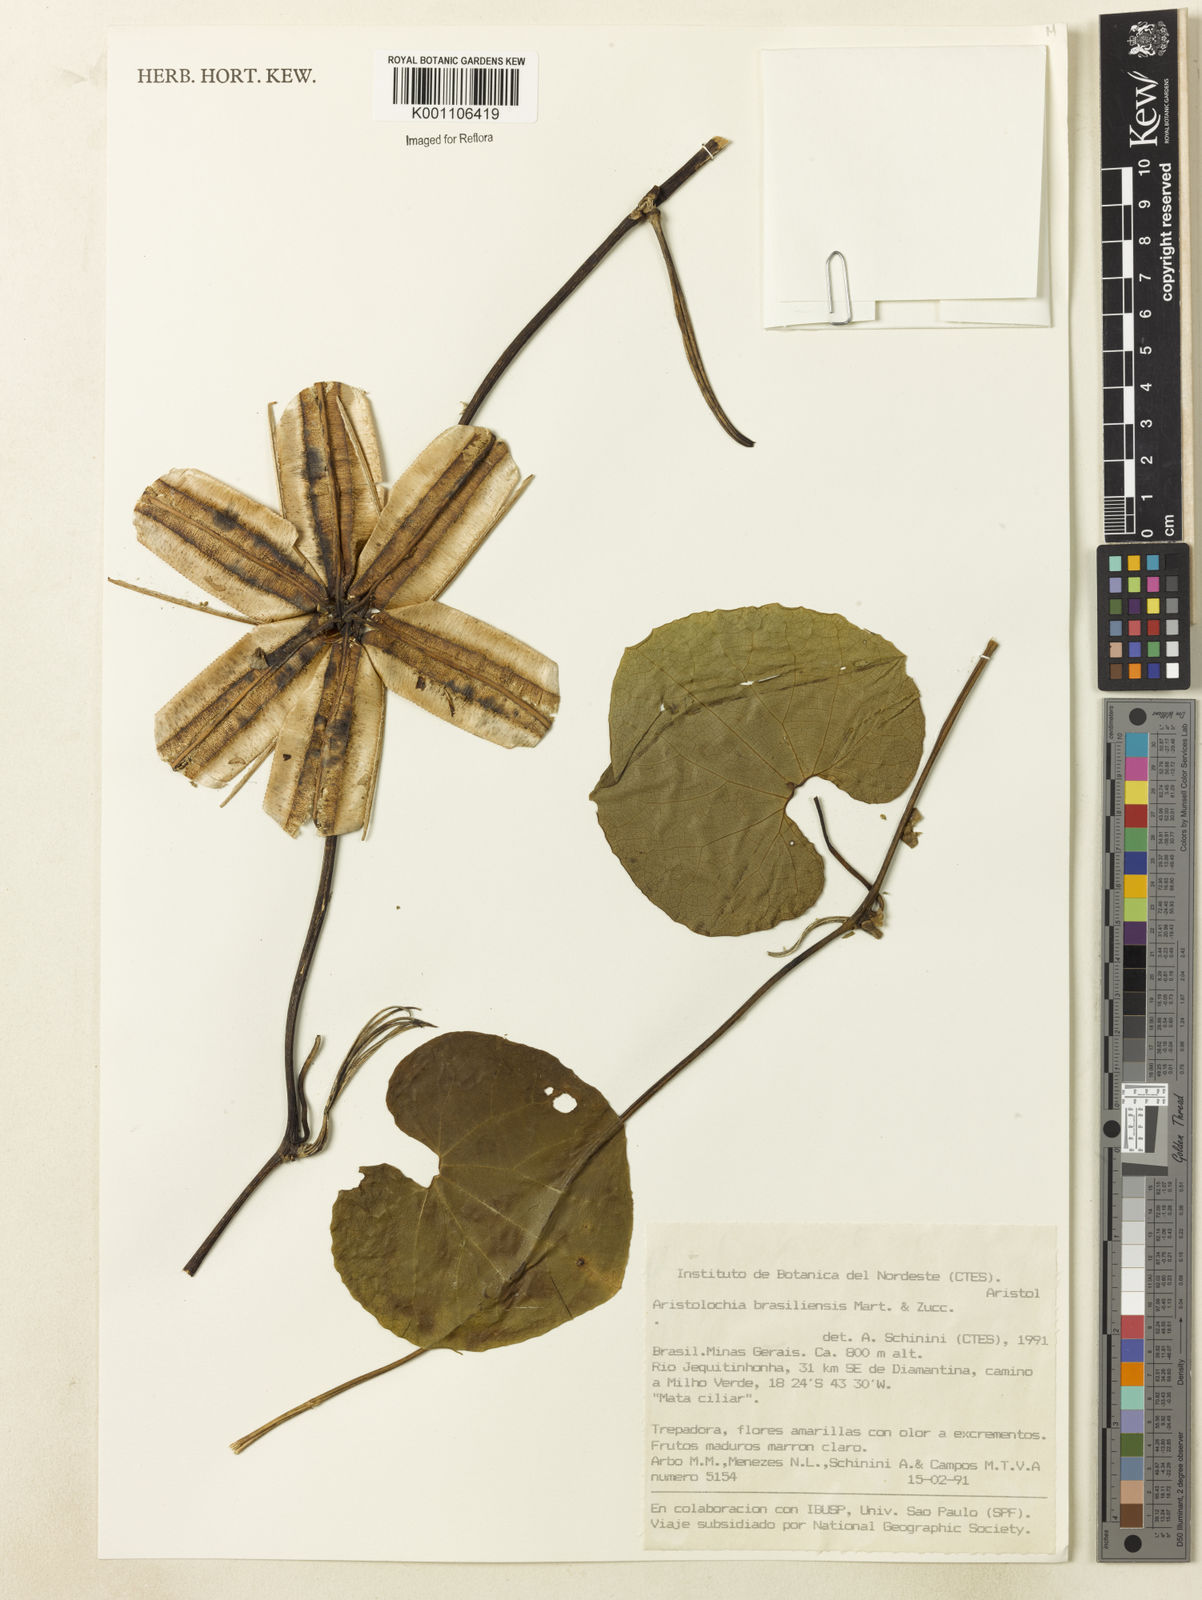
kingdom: Plantae
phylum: Tracheophyta
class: Magnoliopsida
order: Piperales
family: Aristolochiaceae
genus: Aristolochia
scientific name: Aristolochia labiata
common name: Mottled dutchman's pipe
